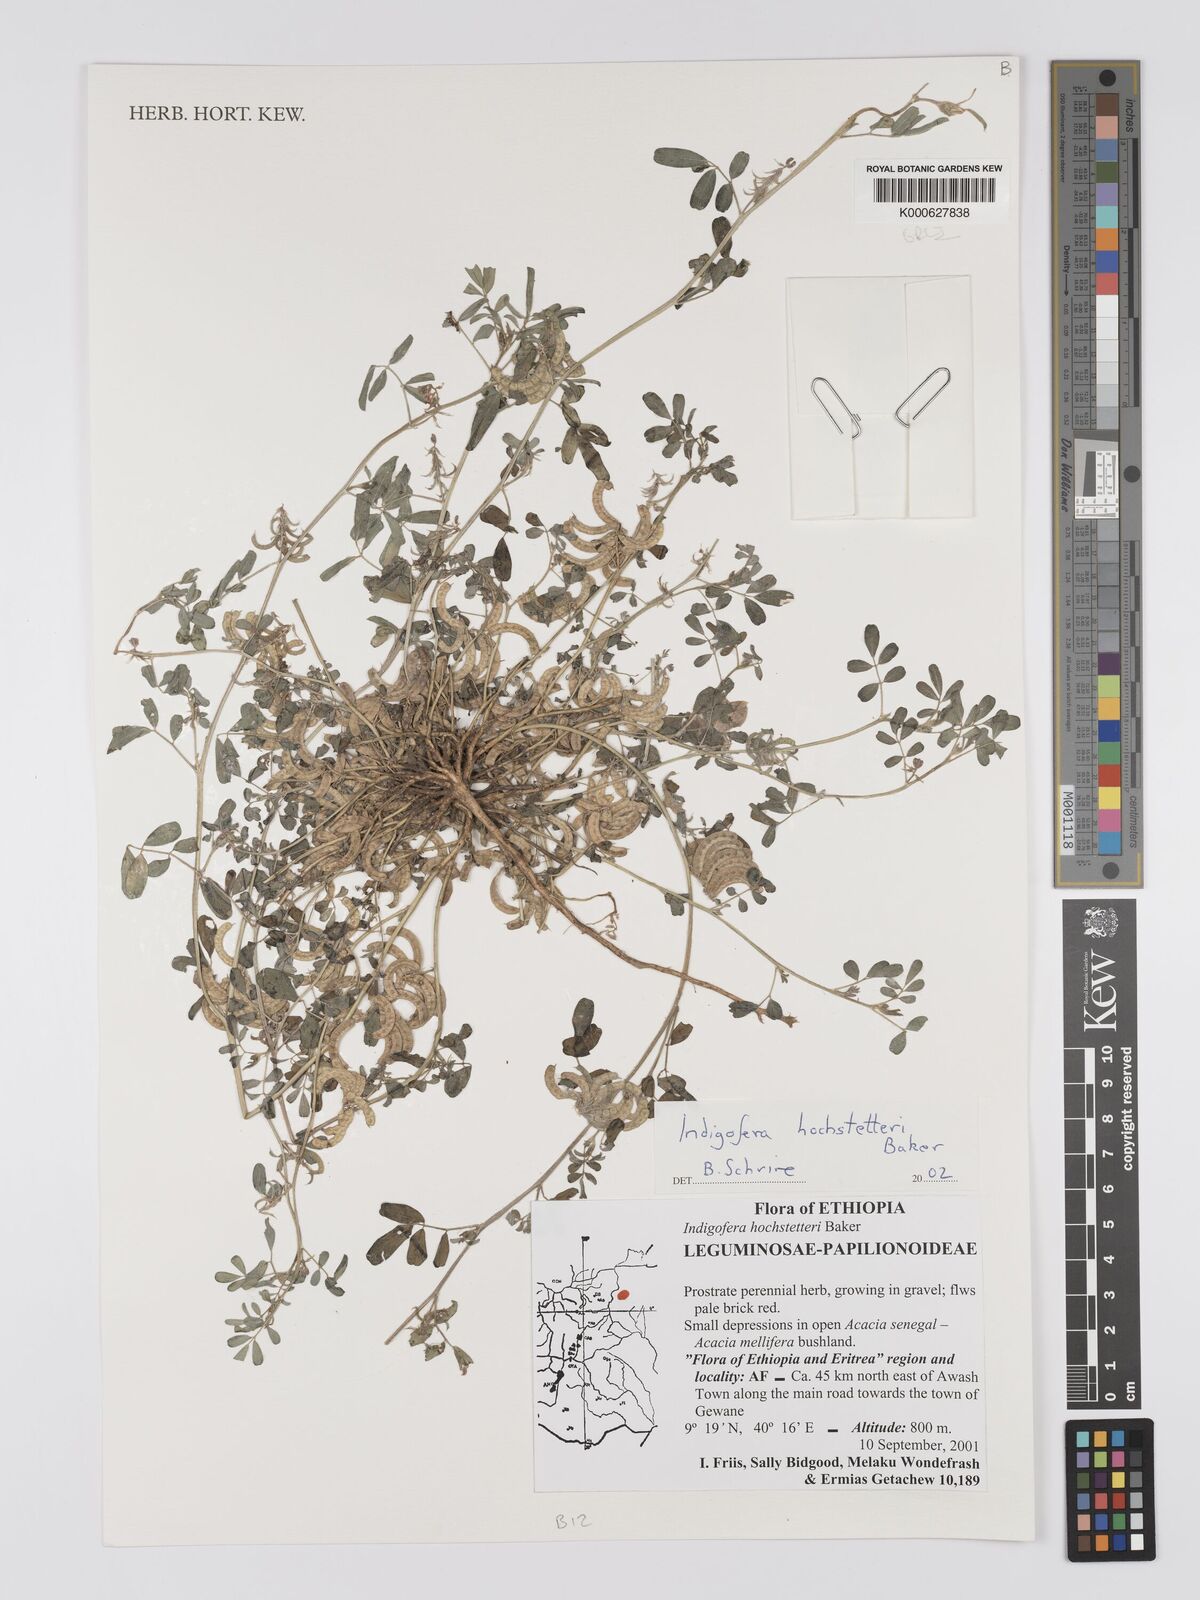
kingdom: Plantae
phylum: Tracheophyta
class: Magnoliopsida
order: Fabales
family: Fabaceae
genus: Indigofera
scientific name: Indigofera hochstetteri
